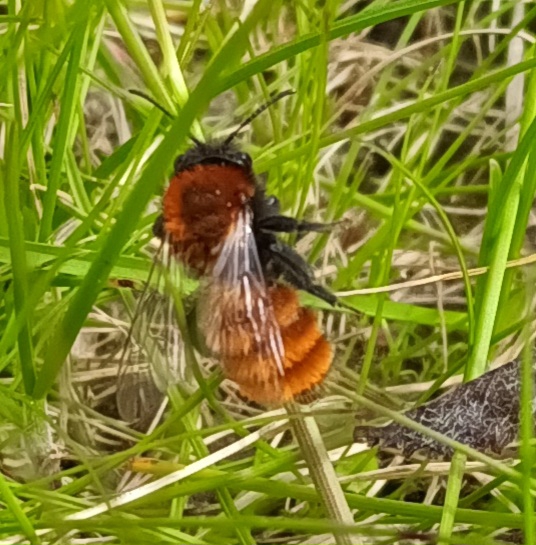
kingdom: Animalia
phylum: Arthropoda
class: Insecta
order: Hymenoptera
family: Andrenidae
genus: Andrena
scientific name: Andrena fulva
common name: Rødpelset jordbi
